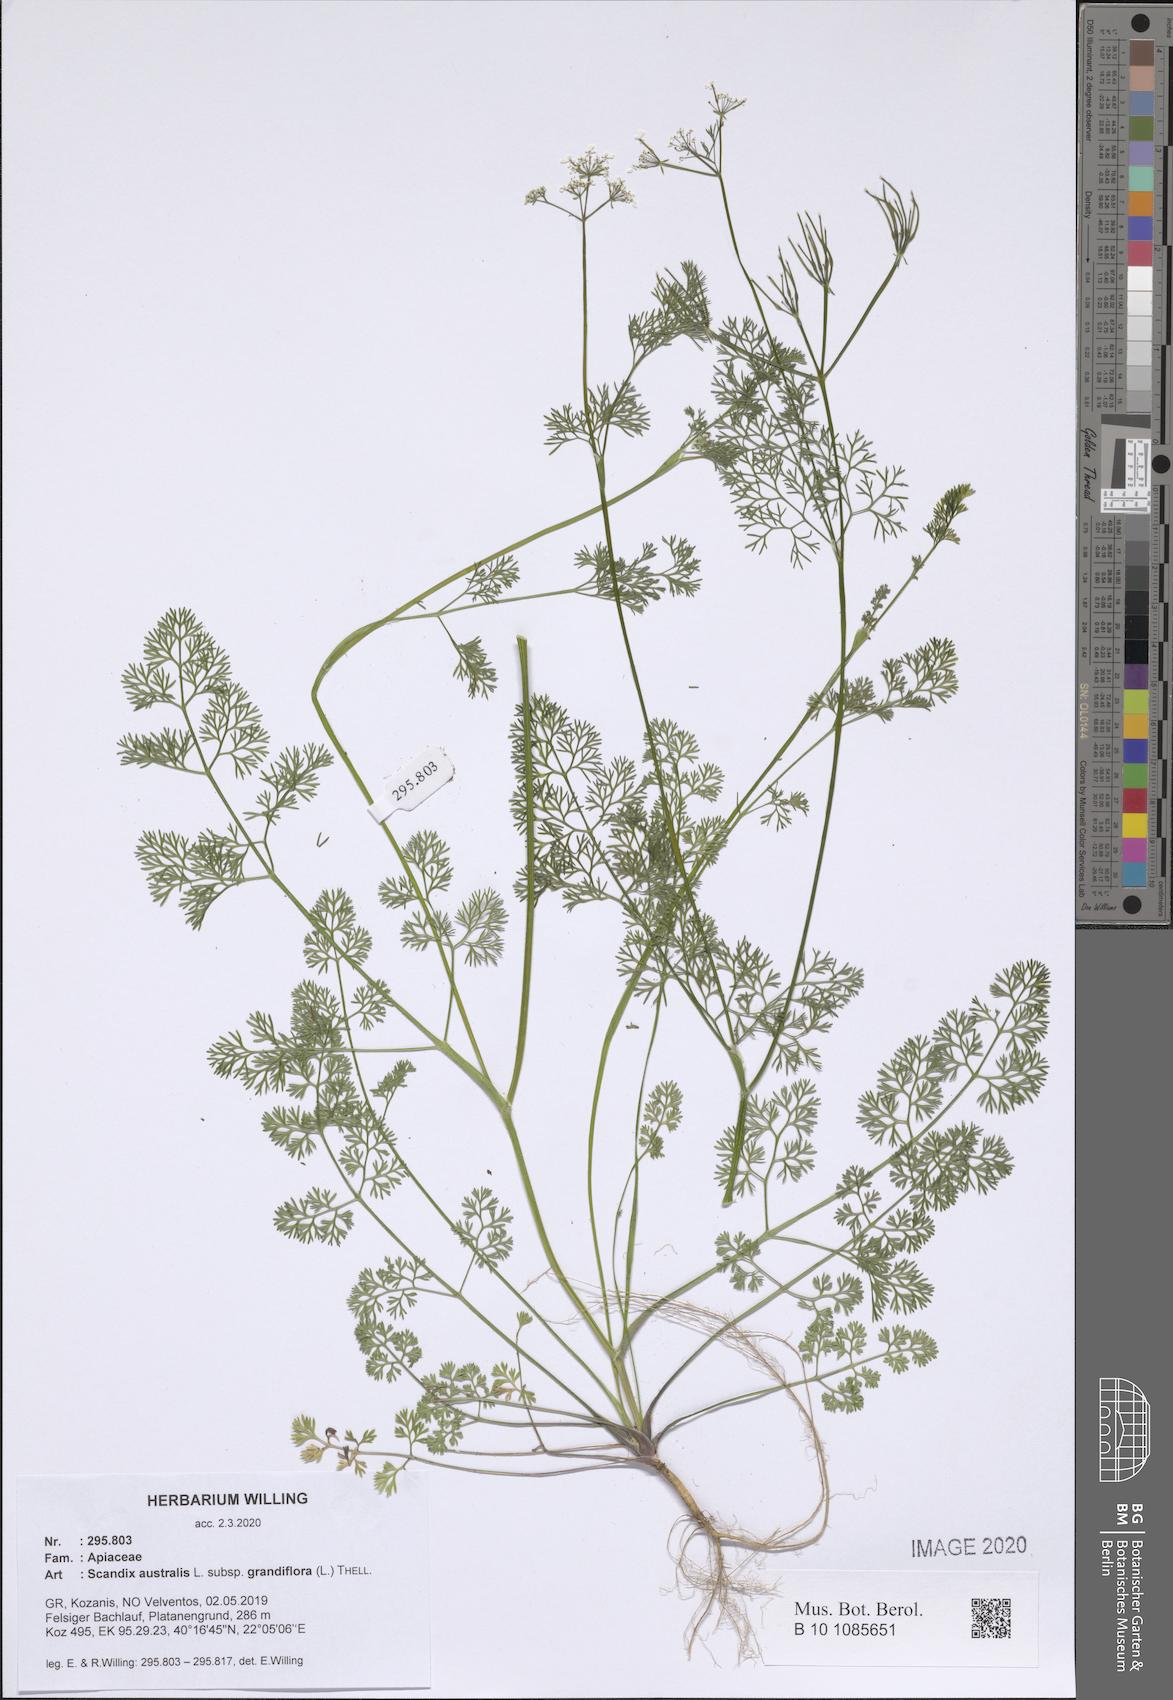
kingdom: Plantae
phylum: Tracheophyta
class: Magnoliopsida
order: Apiales
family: Apiaceae
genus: Scandix
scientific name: Scandix australis
